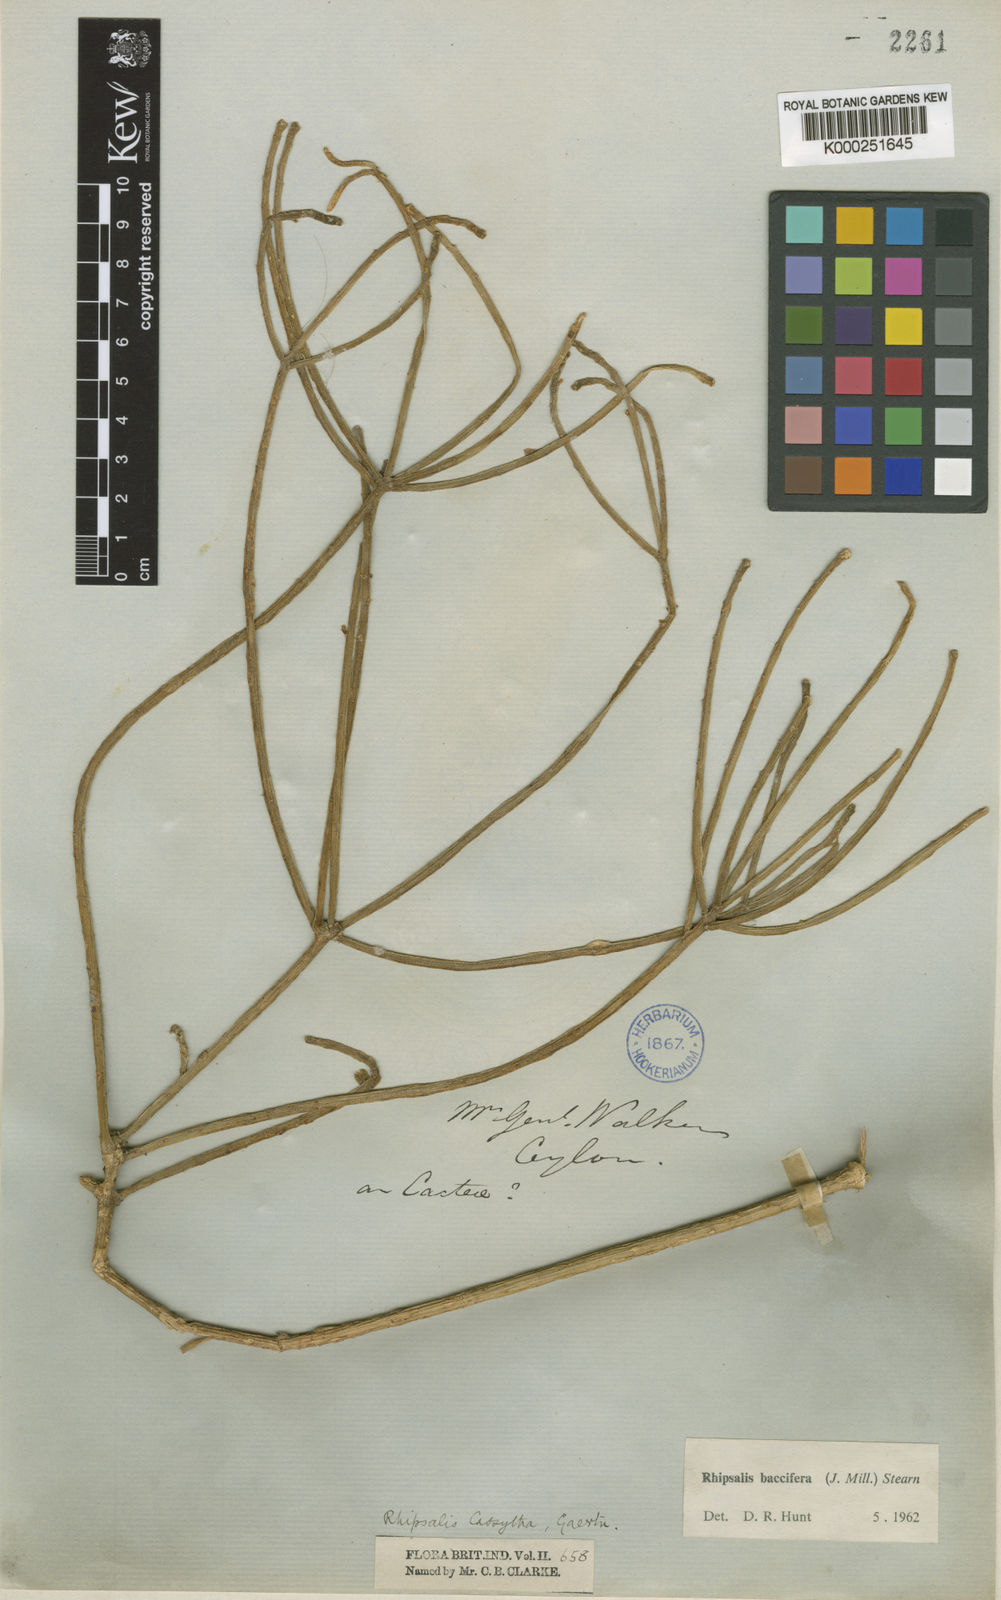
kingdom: Plantae
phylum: Tracheophyta
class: Magnoliopsida
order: Caryophyllales
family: Cactaceae
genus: Rhipsalis
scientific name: Rhipsalis baccifera
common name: Mistletoe cactus
